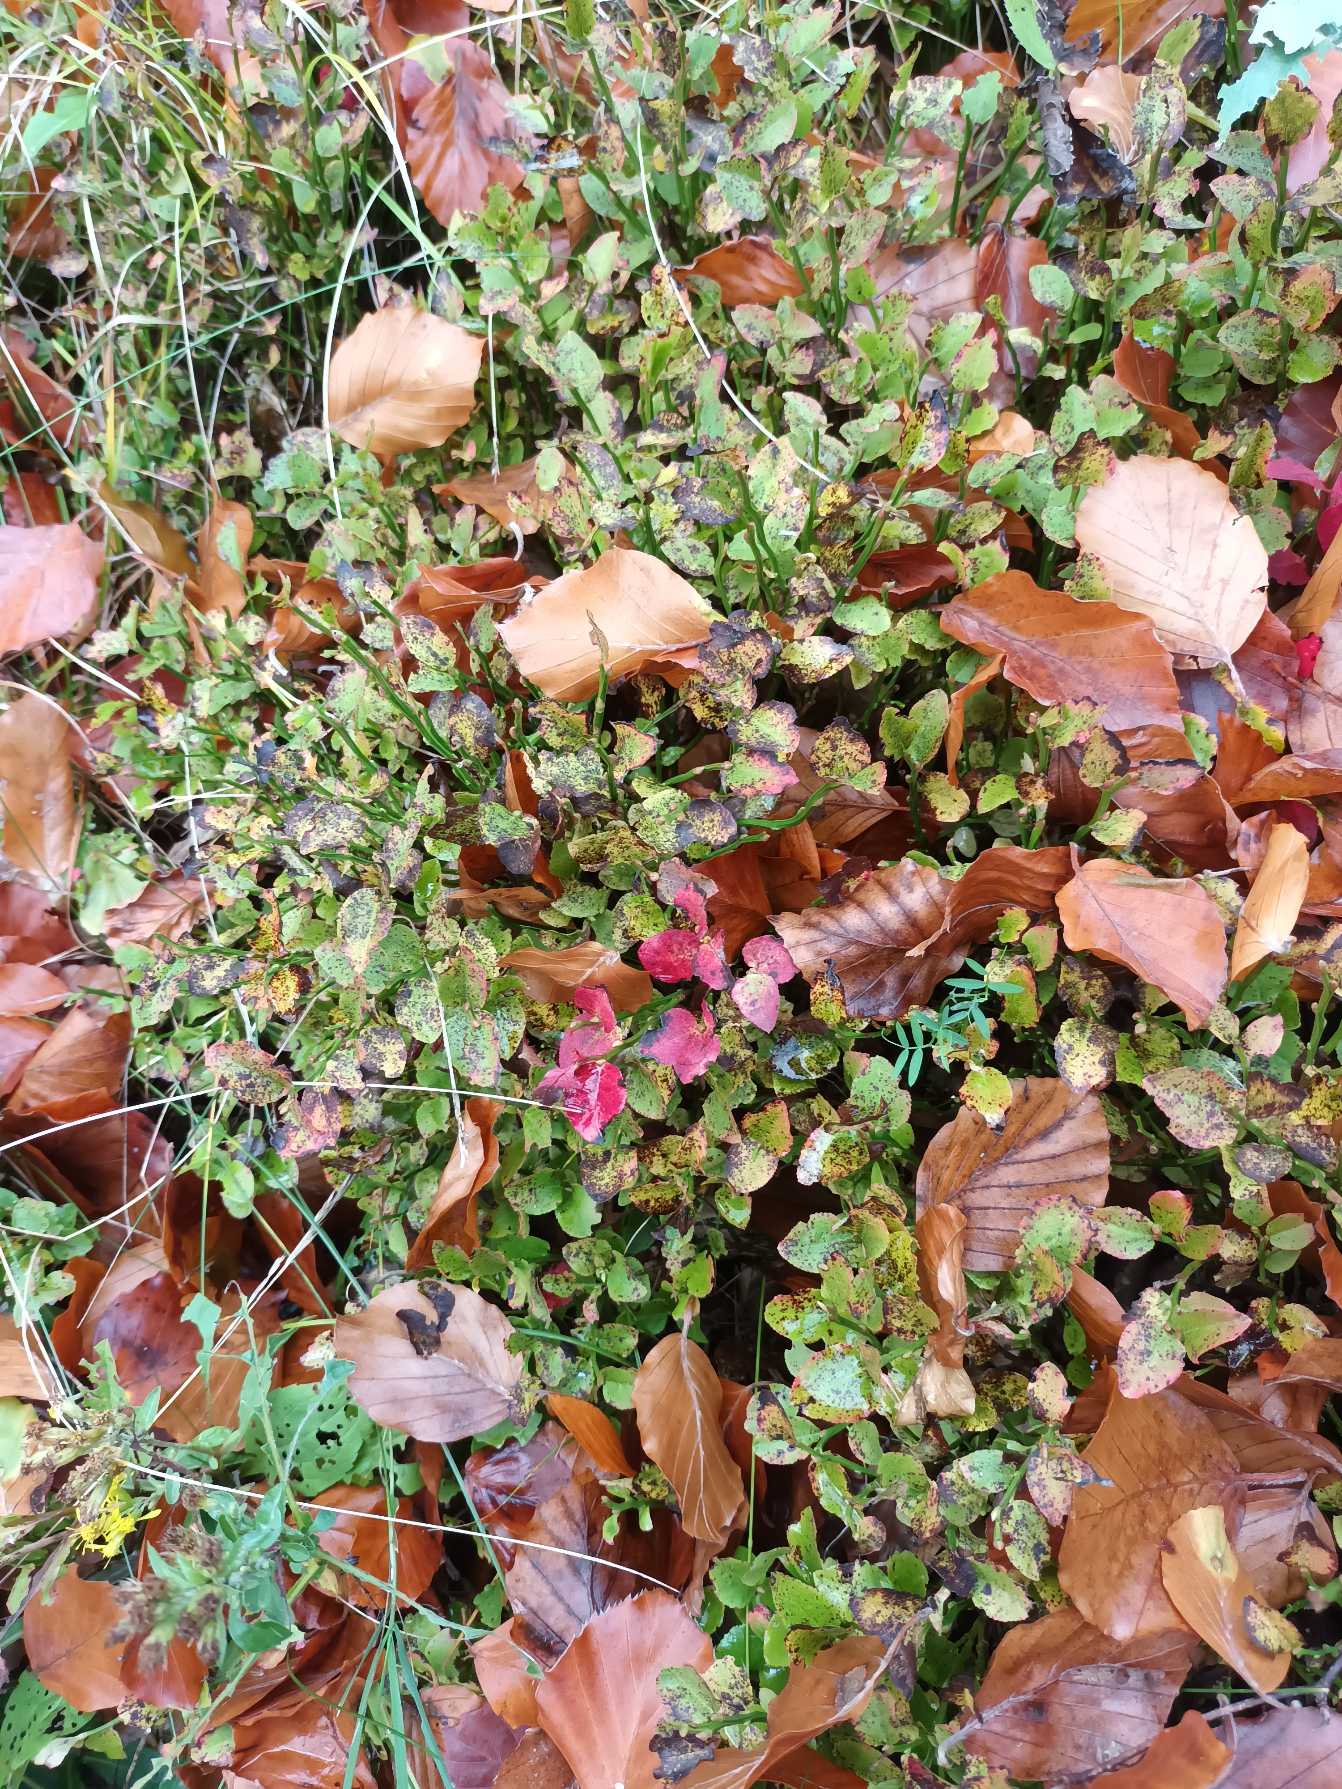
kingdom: Plantae
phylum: Tracheophyta
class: Magnoliopsida
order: Ericales
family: Ericaceae
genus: Vaccinium
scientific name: Vaccinium myrtillus
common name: Blåbær
